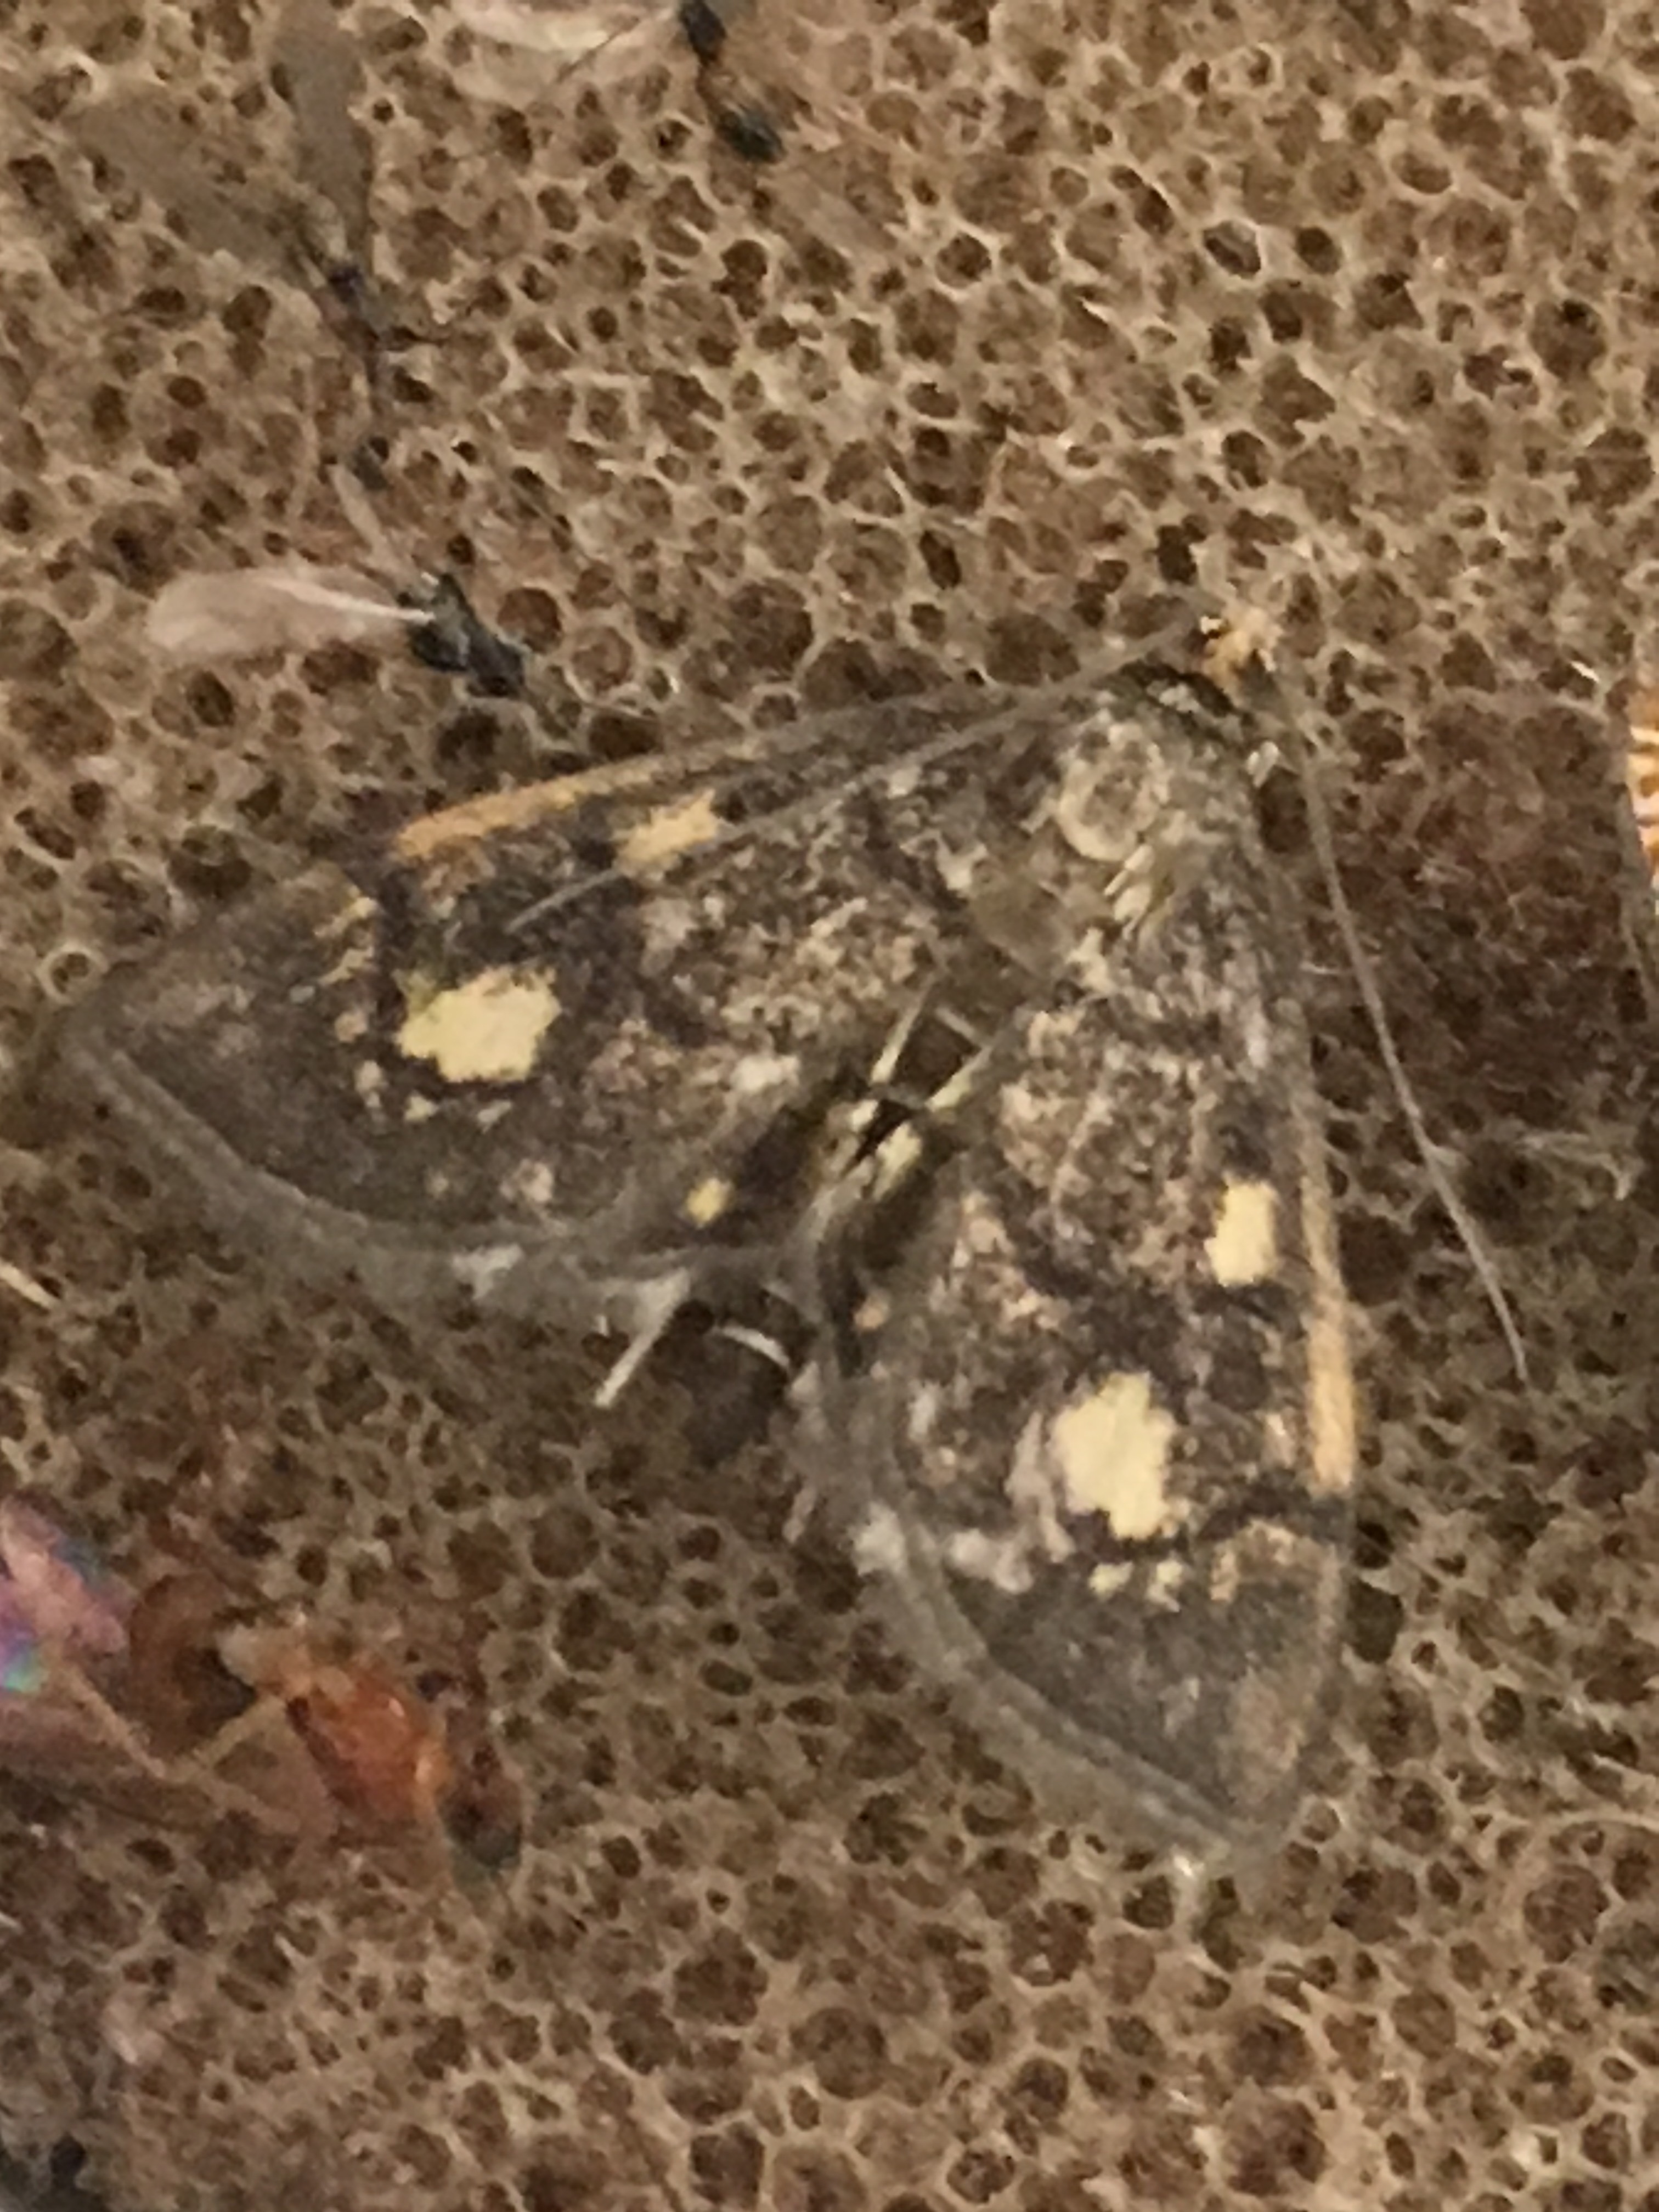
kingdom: Animalia
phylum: Arthropoda
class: Insecta
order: Lepidoptera
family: Crambidae
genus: Anania
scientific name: Anania stachydalis
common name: Woundwort pearl
